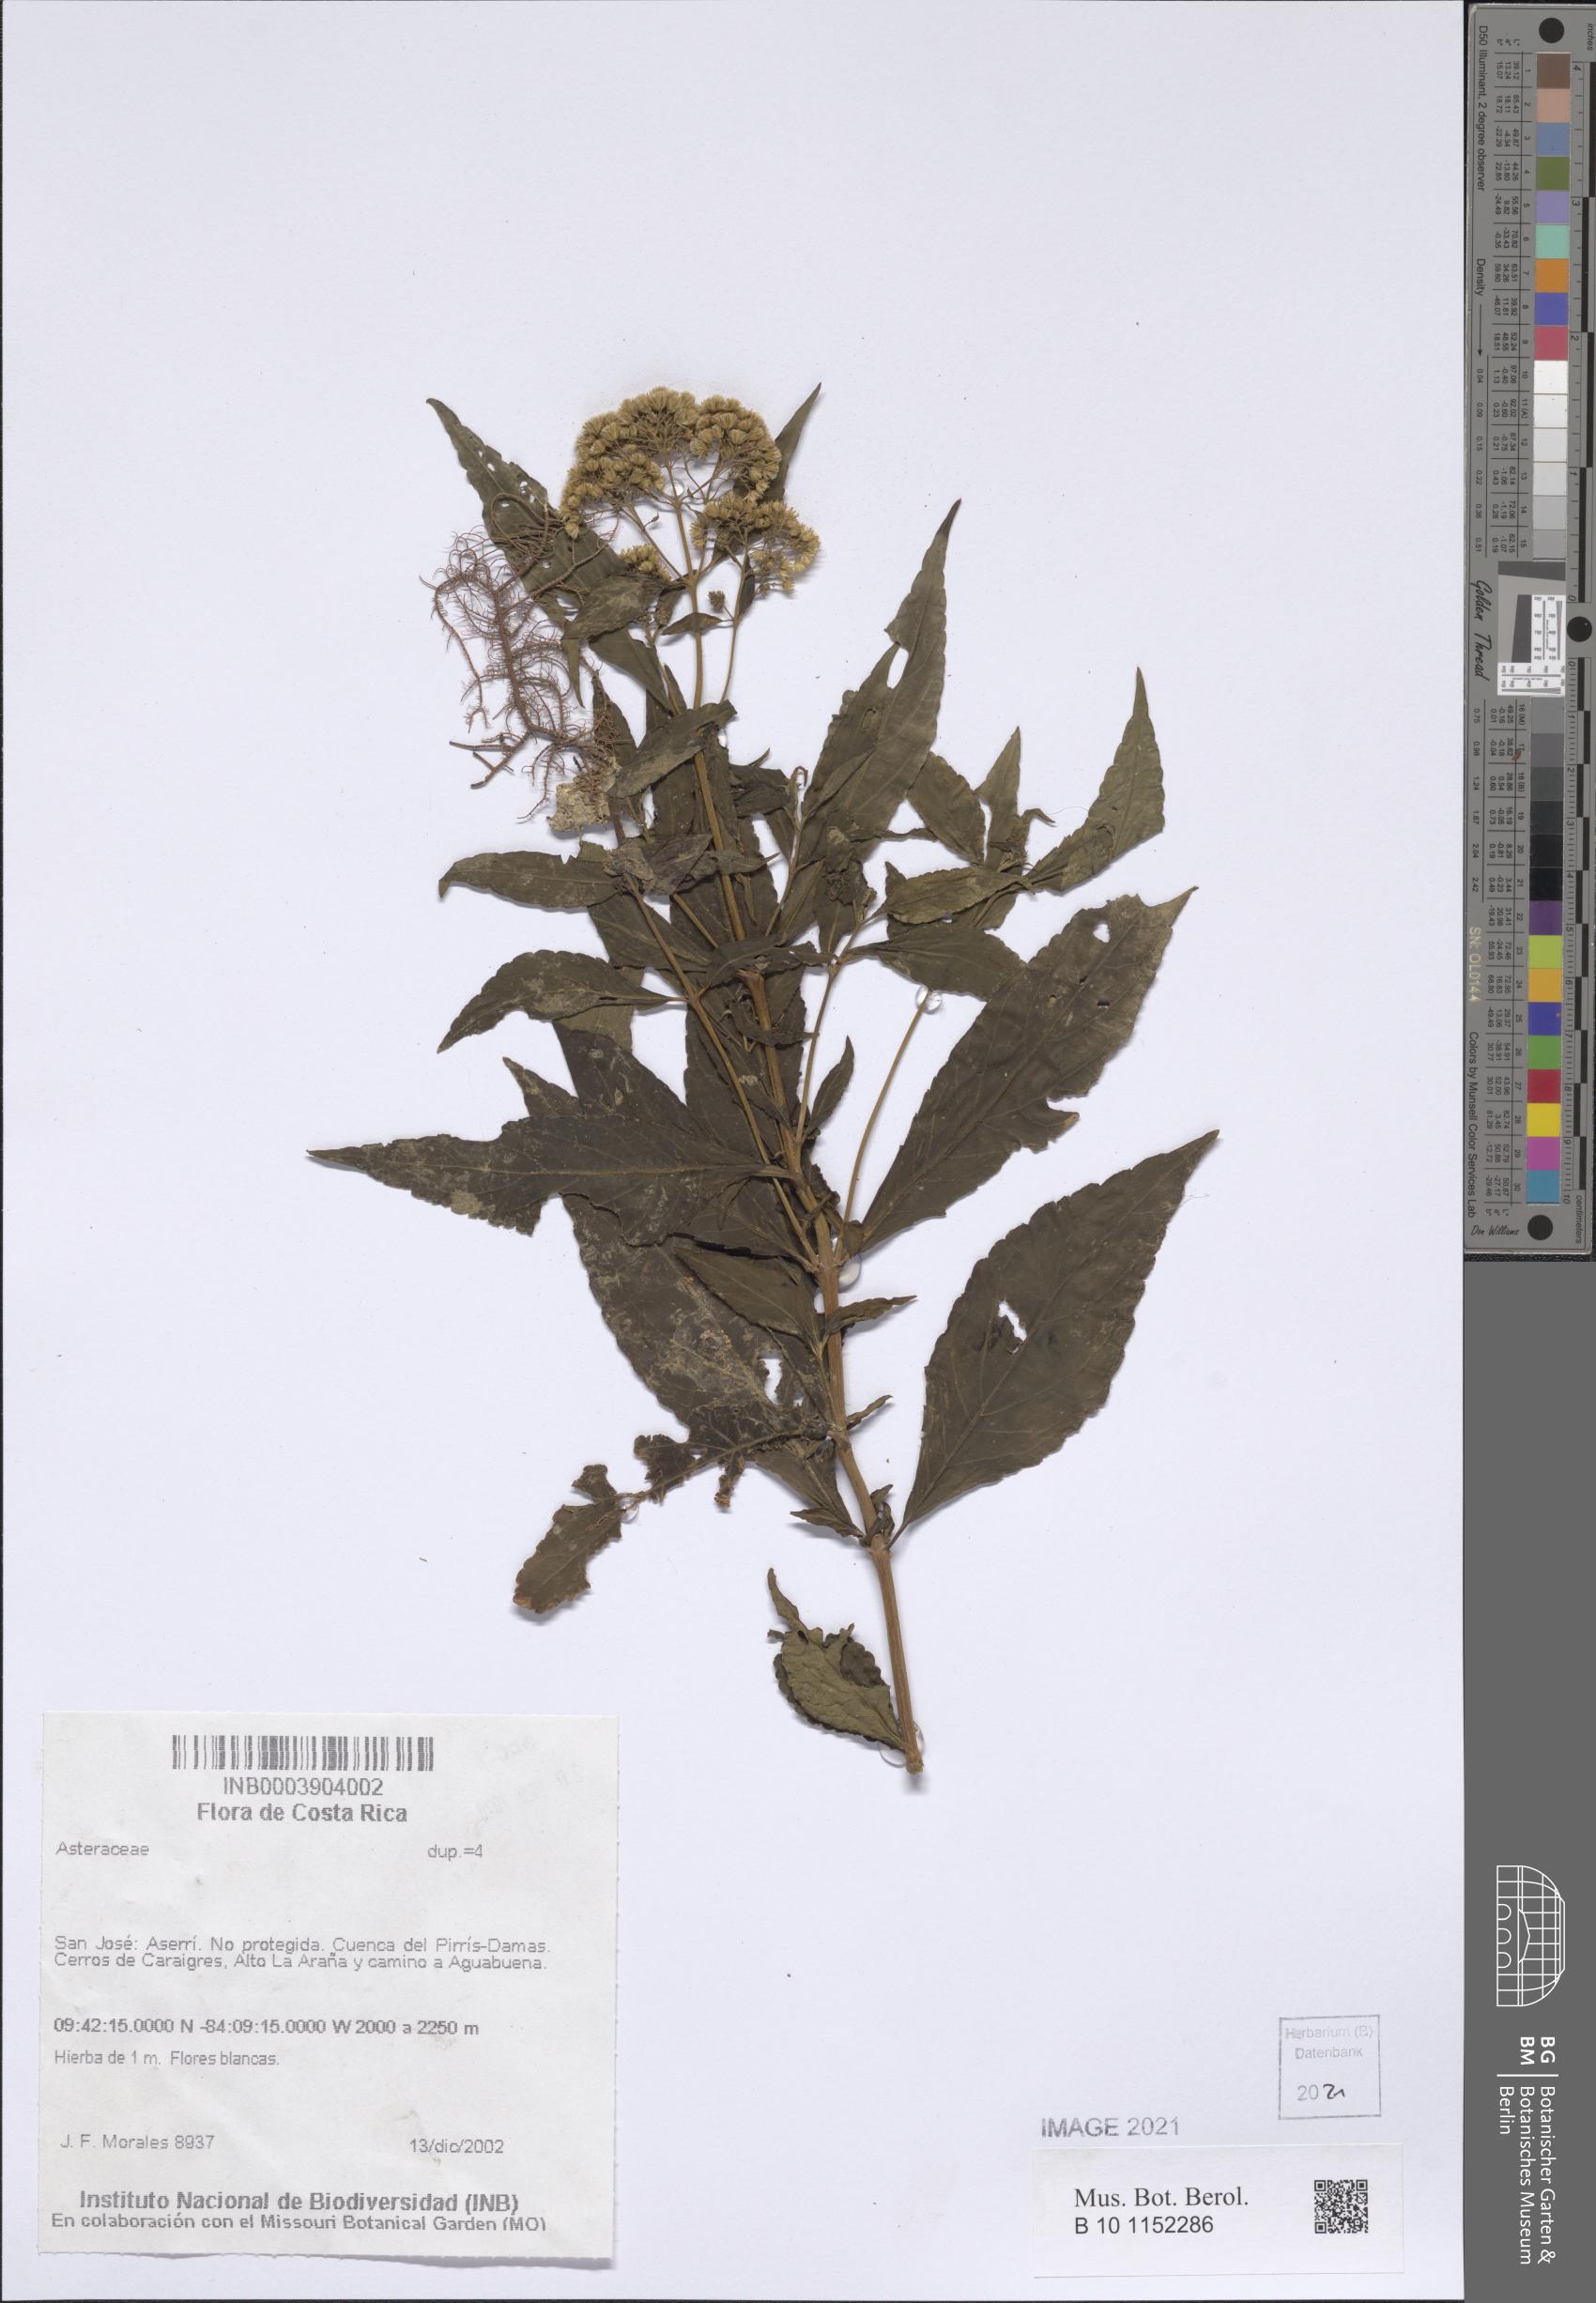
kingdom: Plantae
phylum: Tracheophyta
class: Magnoliopsida
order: Asterales
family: Asteraceae
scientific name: Asteraceae
